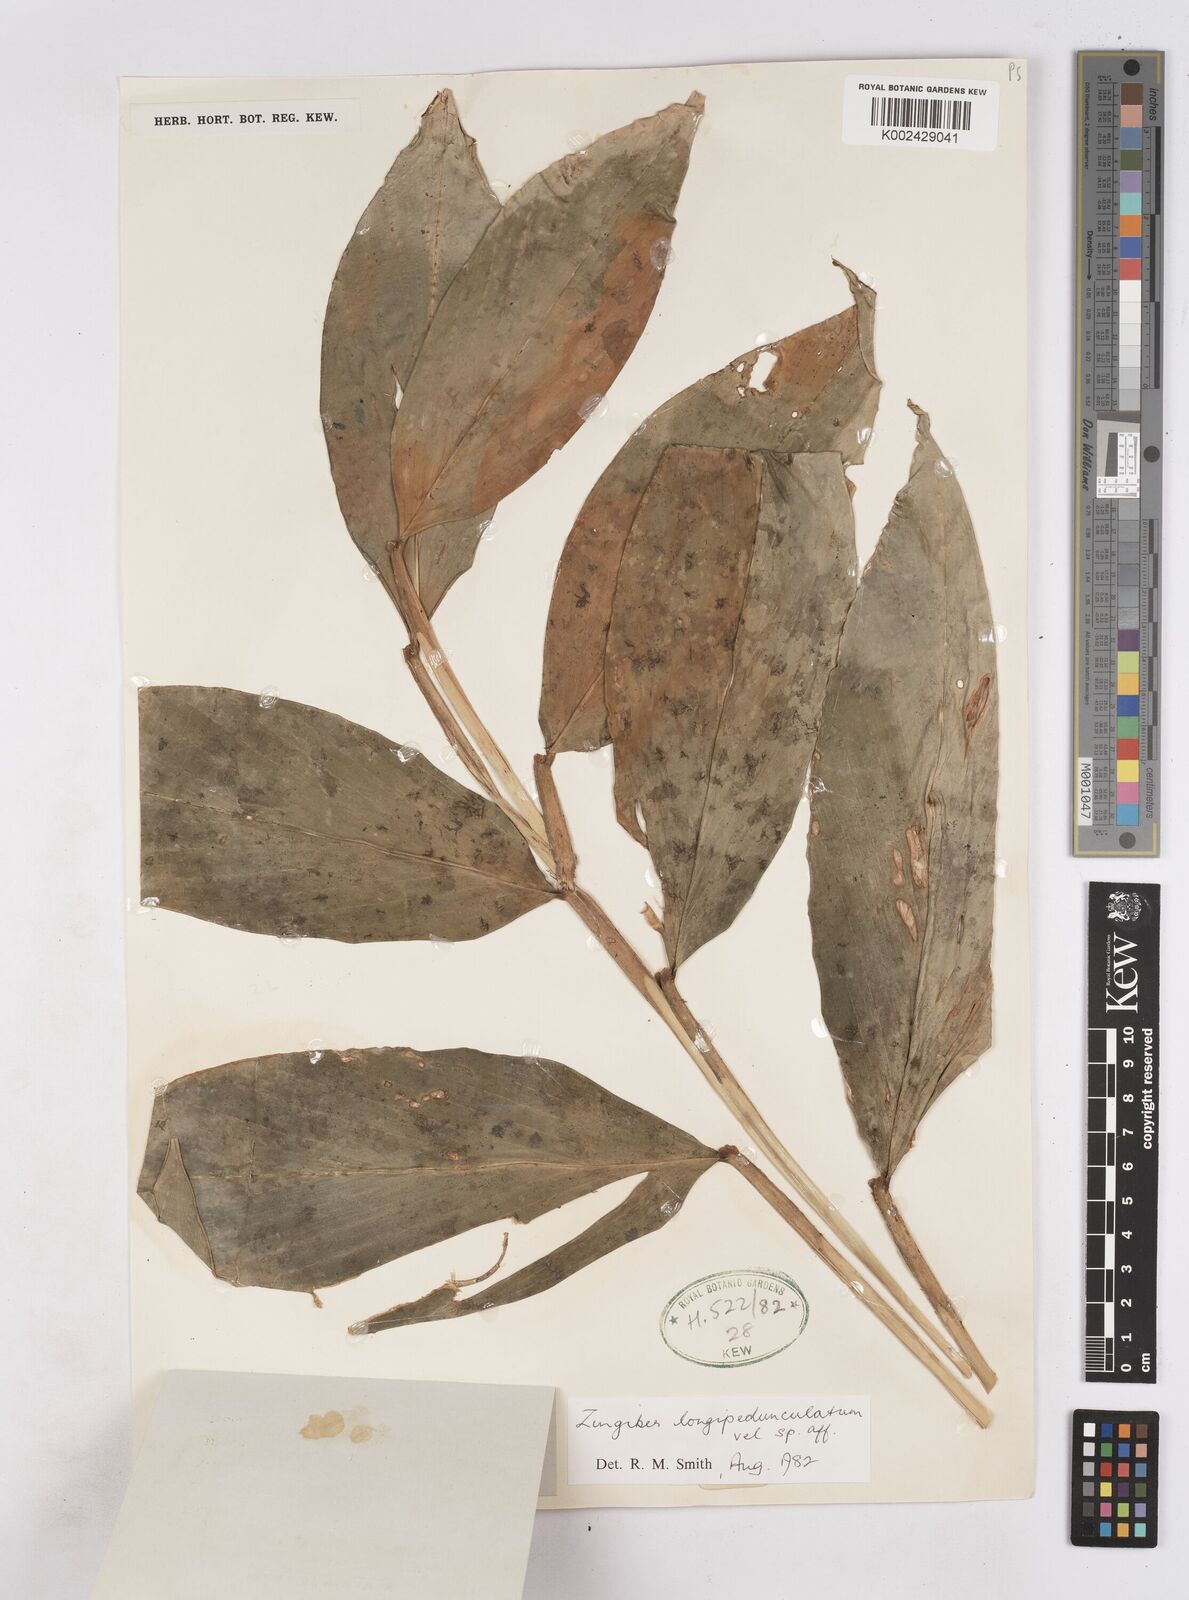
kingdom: Plantae
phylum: Tracheophyta
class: Liliopsida
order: Zingiberales
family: Zingiberaceae
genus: Zingiber
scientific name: Zingiber longipedunculatum
